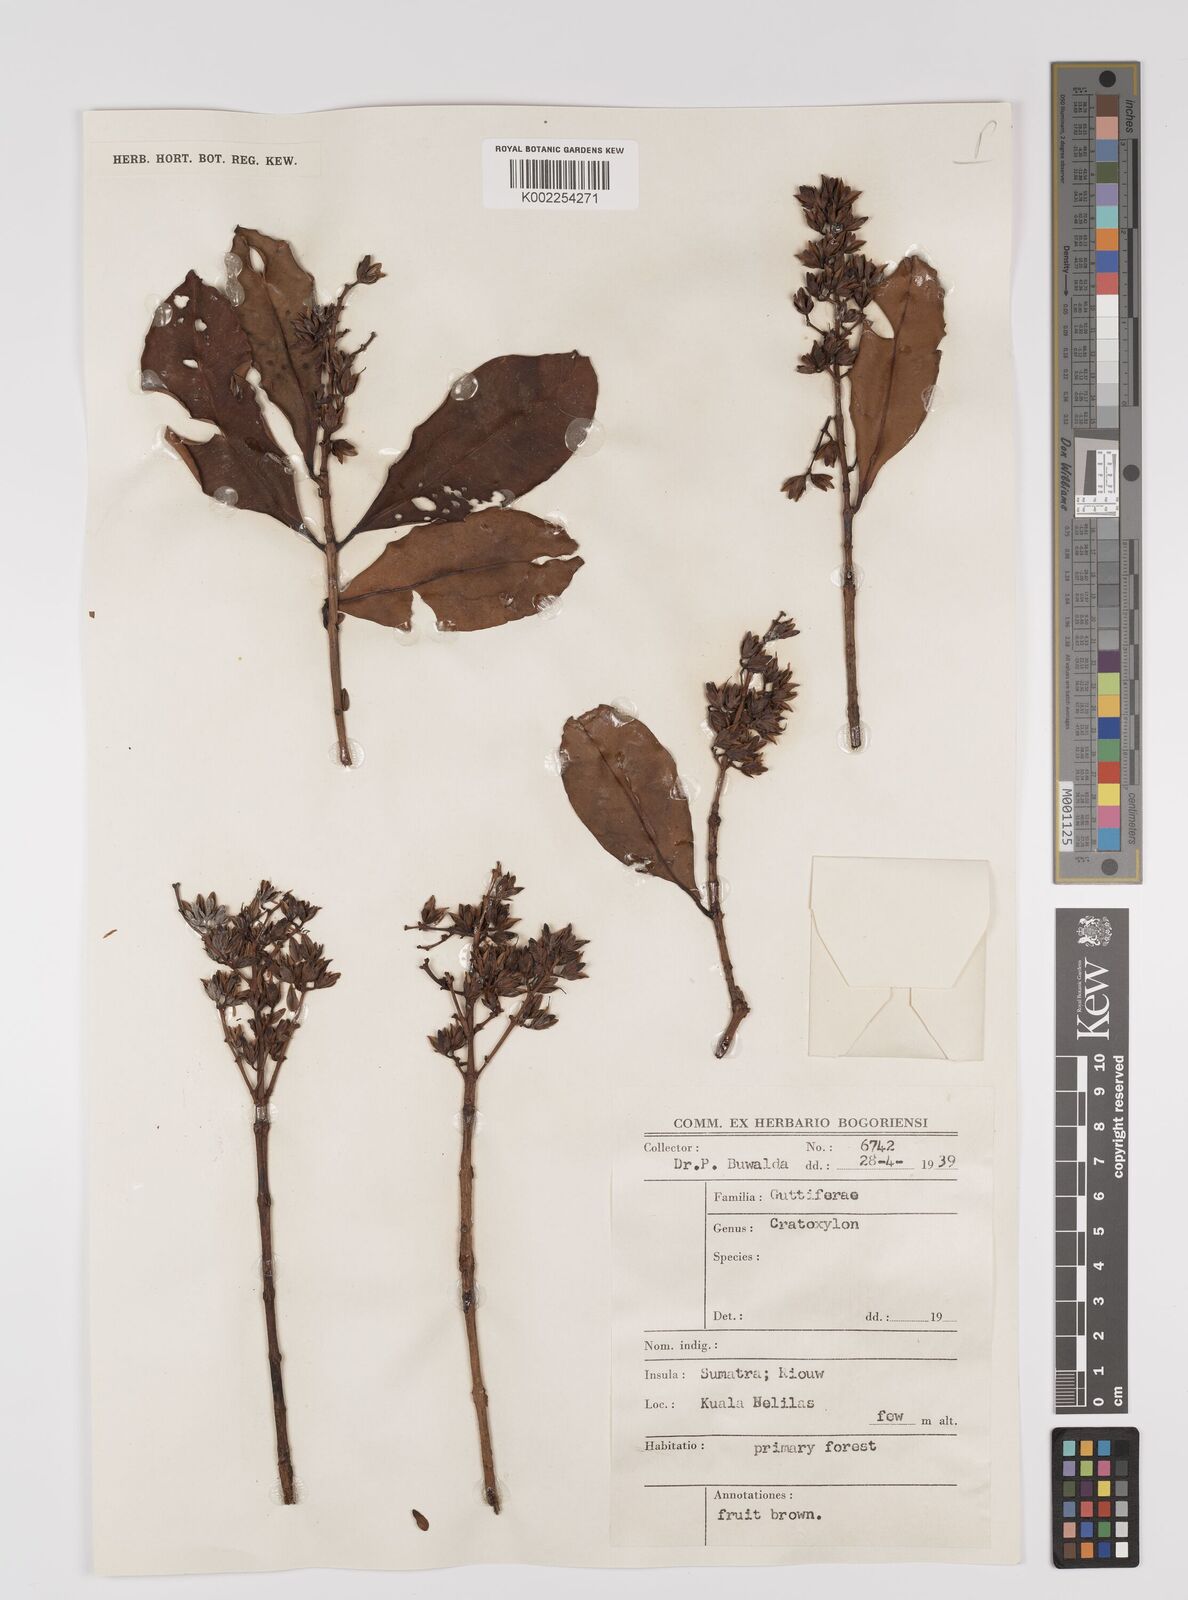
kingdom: Plantae
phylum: Tracheophyta
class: Magnoliopsida
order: Malpighiales
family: Hypericaceae
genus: Cratoxylum
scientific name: Cratoxylum
